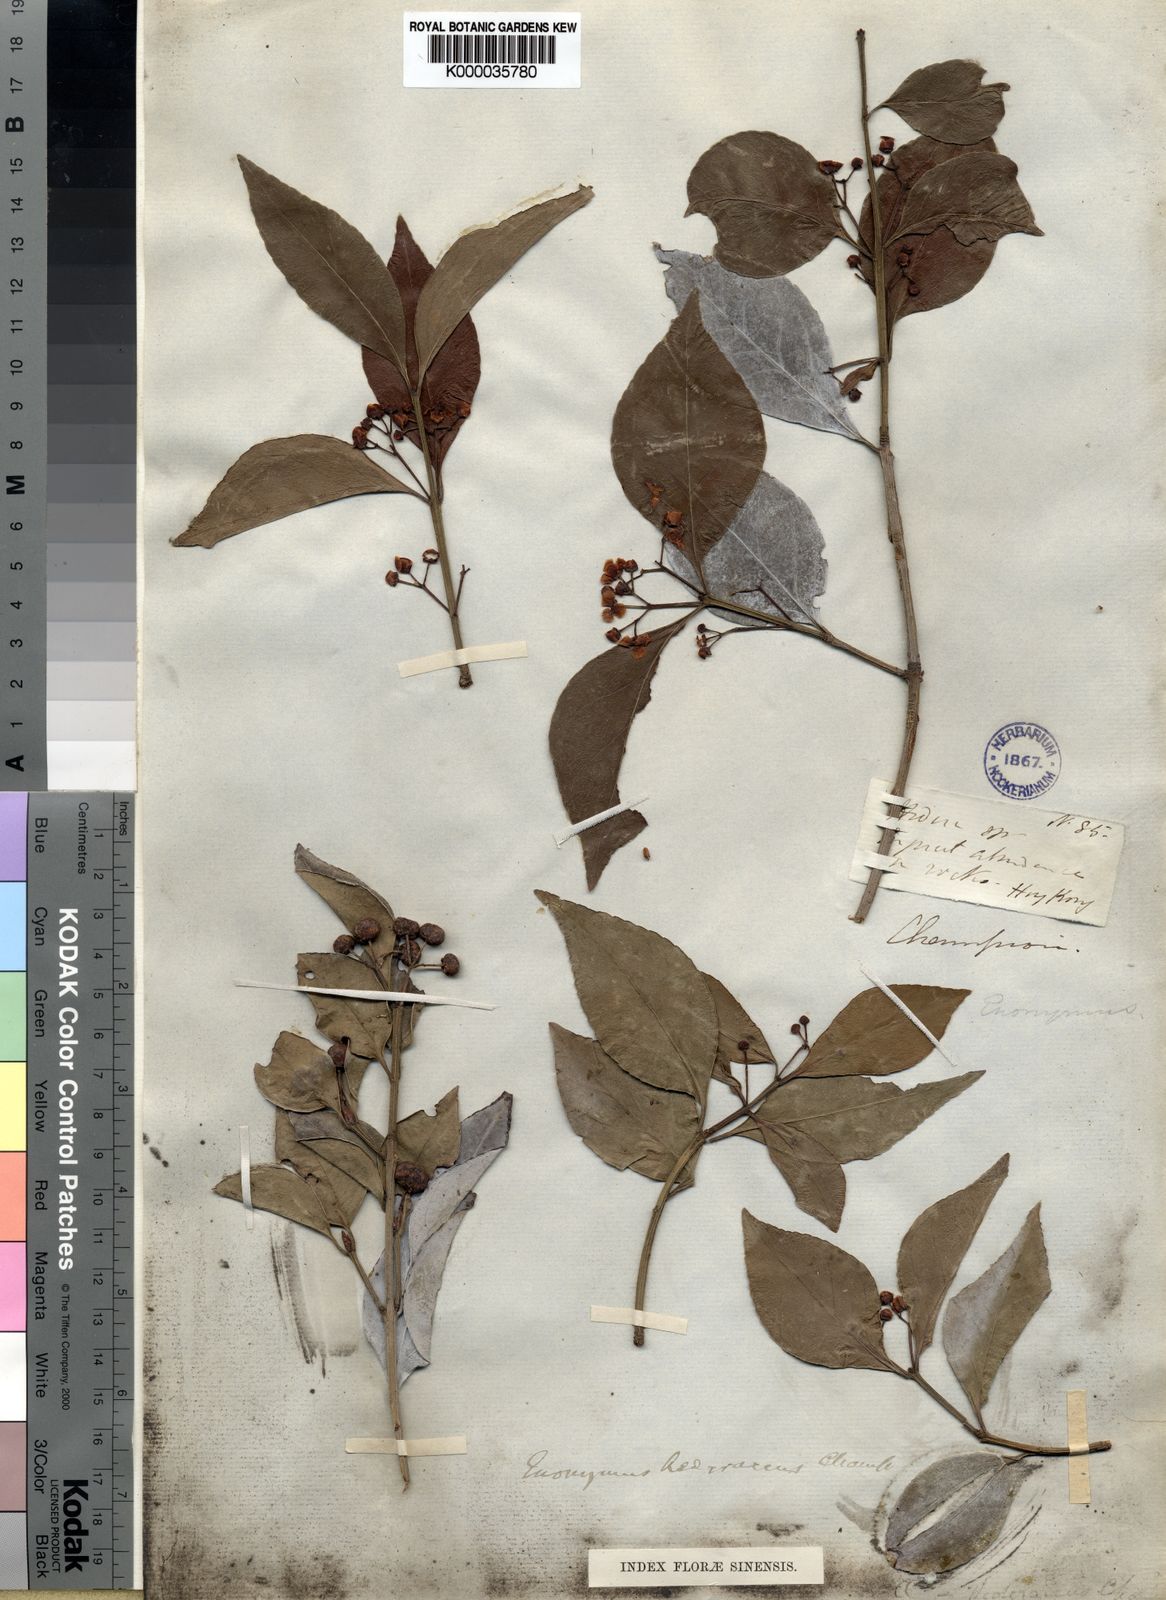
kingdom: Plantae
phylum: Tracheophyta
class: Magnoliopsida
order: Celastrales
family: Celastraceae
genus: Euonymus
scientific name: Euonymus fortunei
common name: Climbing euonymus
